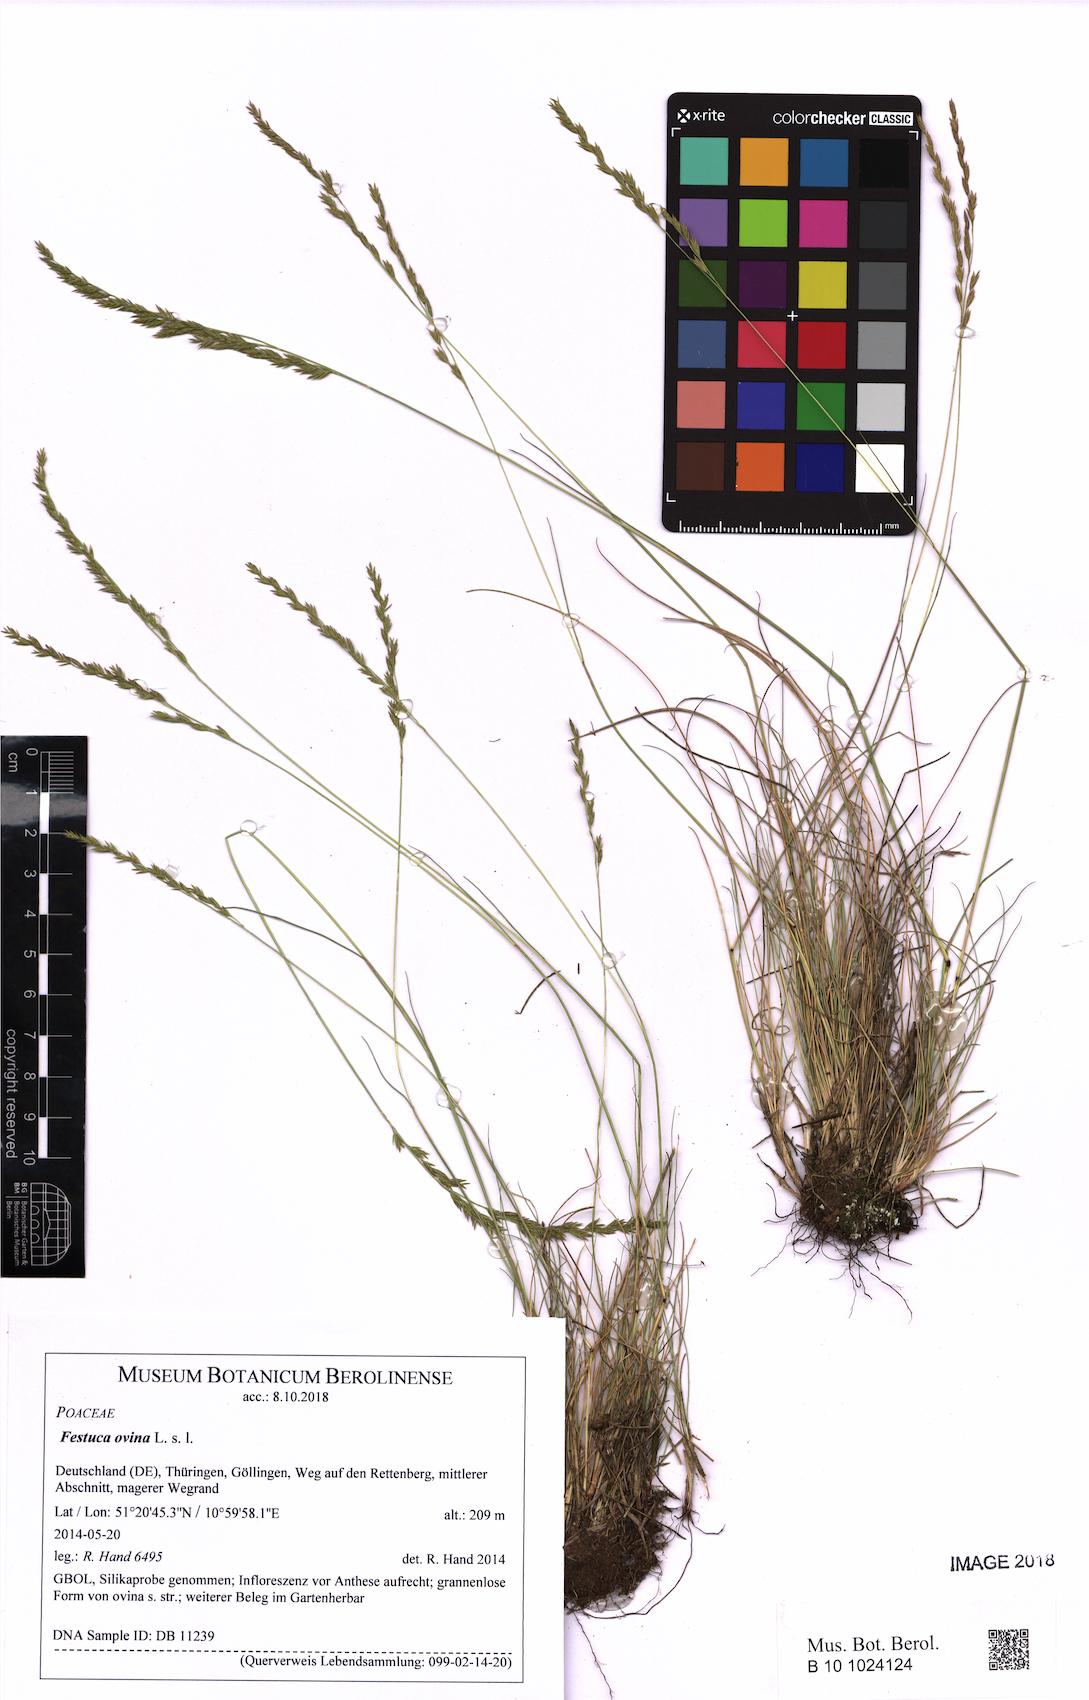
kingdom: Plantae
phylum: Tracheophyta
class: Liliopsida
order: Poales
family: Poaceae
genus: Festuca
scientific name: Festuca ovina
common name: Sheep fescue
